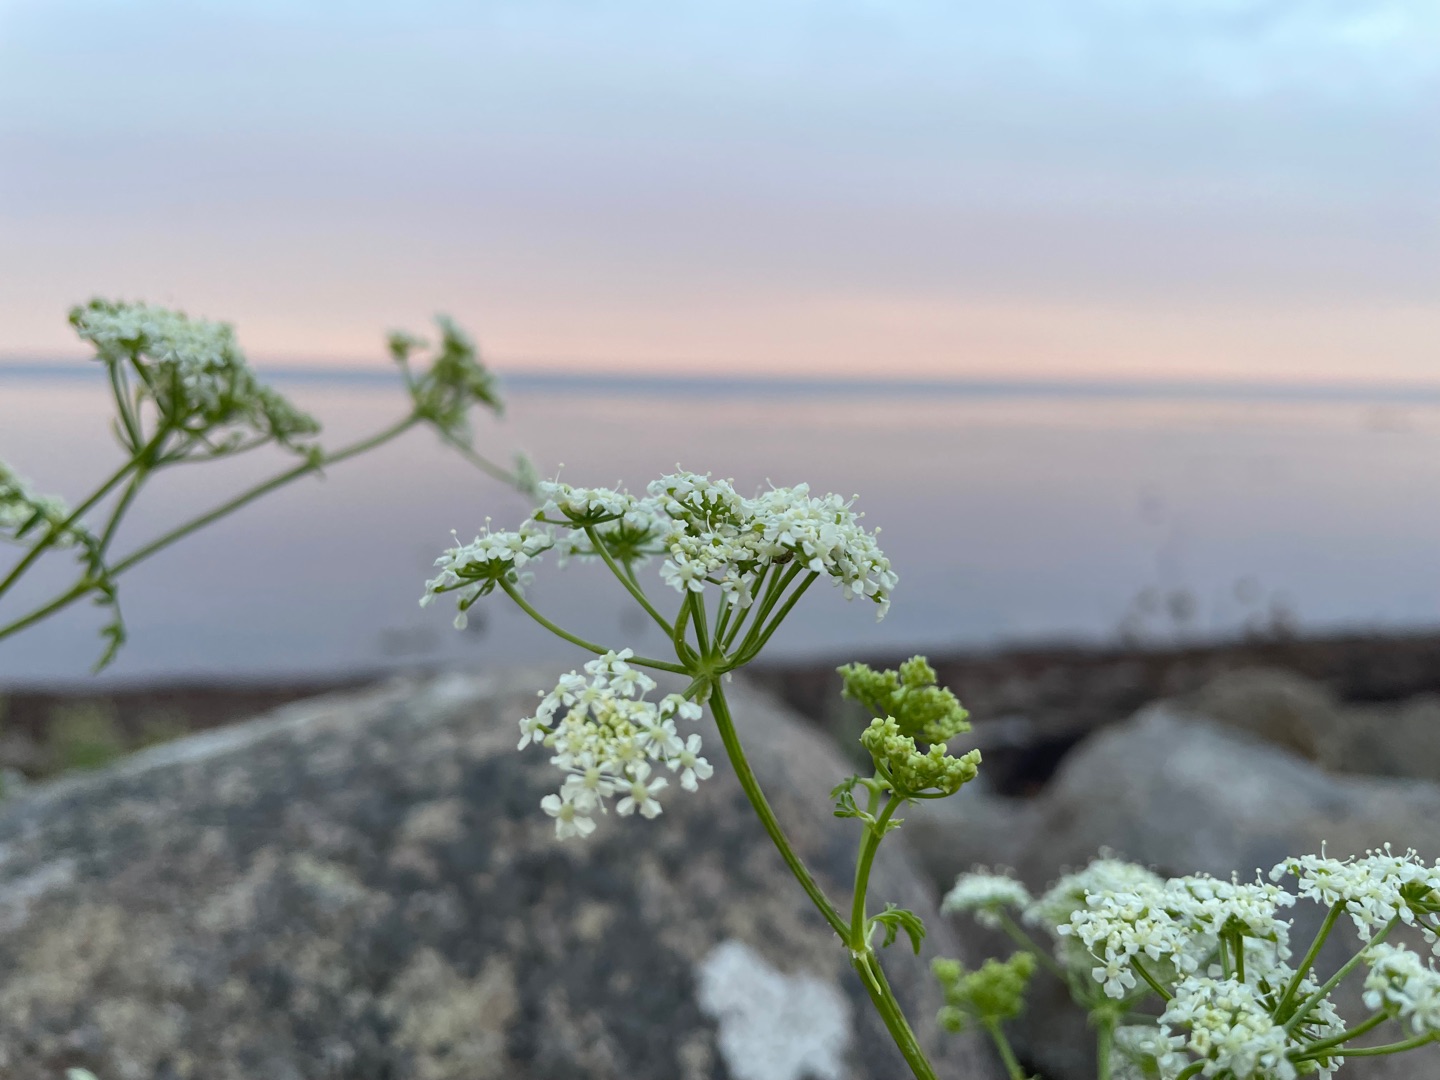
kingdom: Plantae
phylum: Tracheophyta
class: Magnoliopsida
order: Apiales
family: Apiaceae
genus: Conium
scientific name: Conium maculatum
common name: Skarntyde
